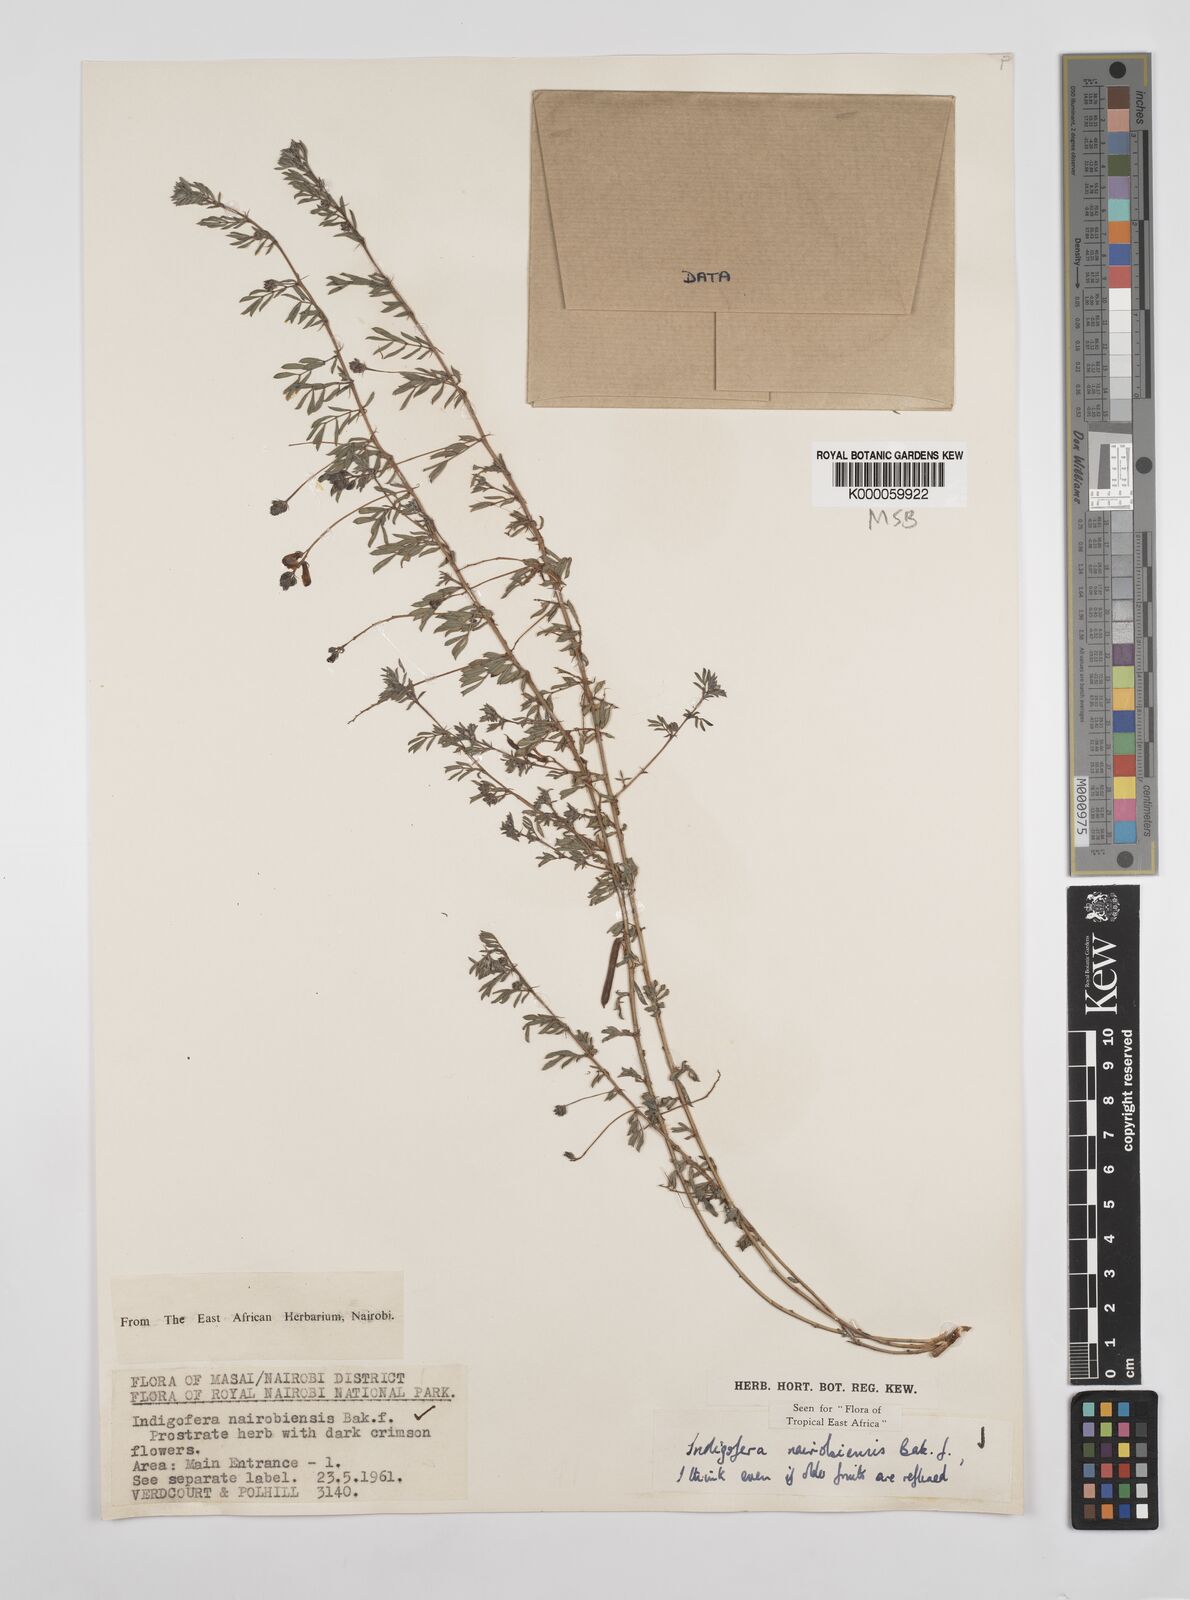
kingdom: Plantae
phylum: Tracheophyta
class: Magnoliopsida
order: Fabales
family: Fabaceae
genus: Indigofera
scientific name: Indigofera nairobiensis
